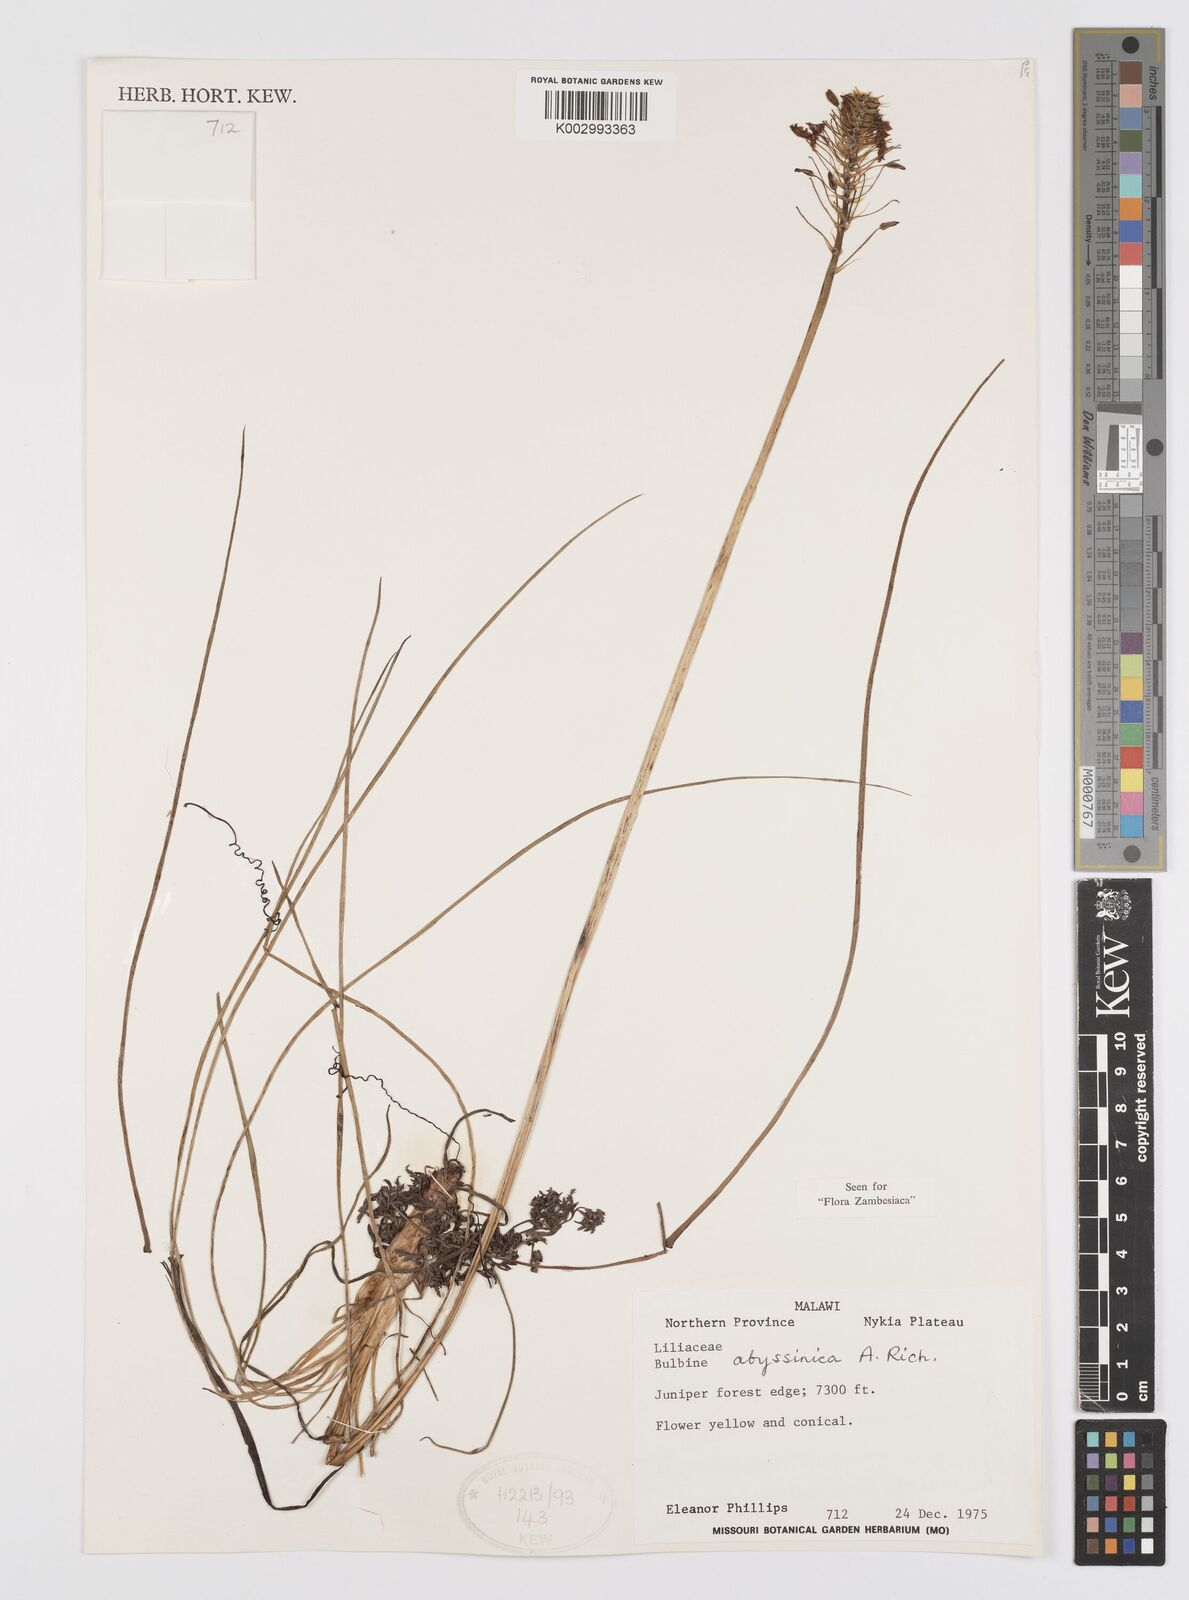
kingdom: Plantae
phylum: Tracheophyta
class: Liliopsida
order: Asparagales
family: Asphodelaceae
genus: Bulbine
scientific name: Bulbine abyssinica
